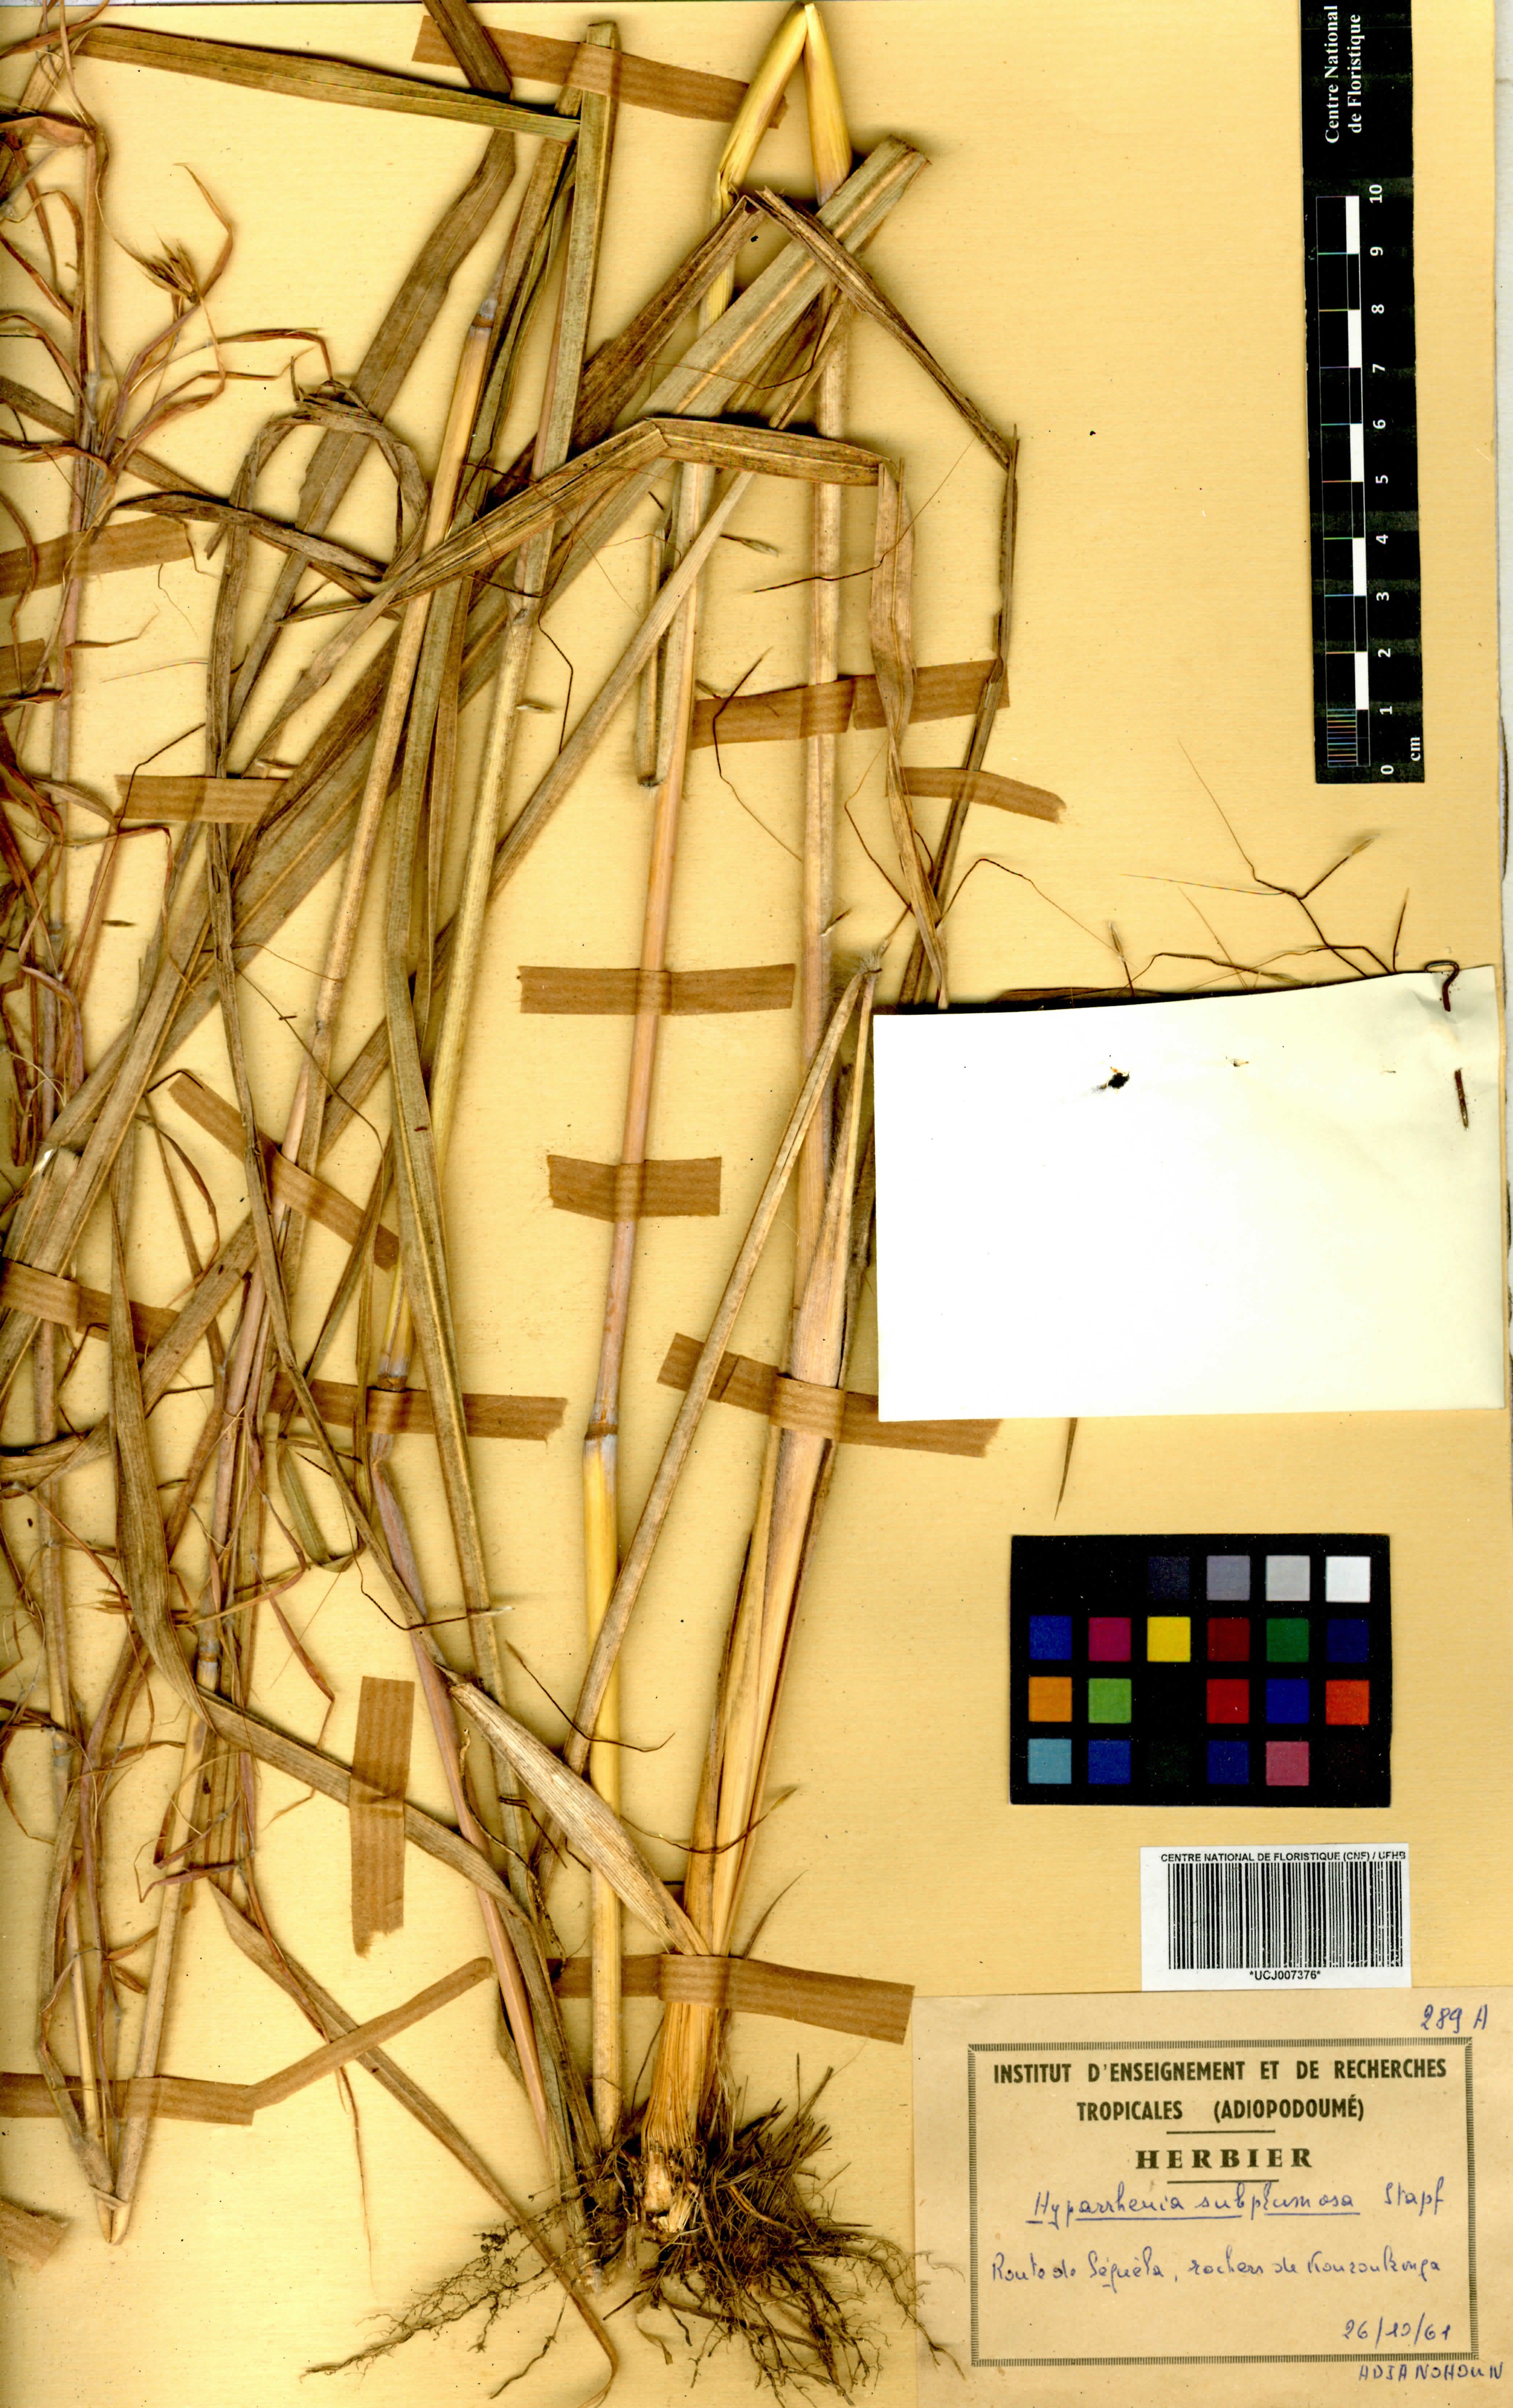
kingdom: Plantae
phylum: Tracheophyta
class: Liliopsida
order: Poales
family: Poaceae
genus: Hyparrhenia
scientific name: Hyparrhenia subplumosa
